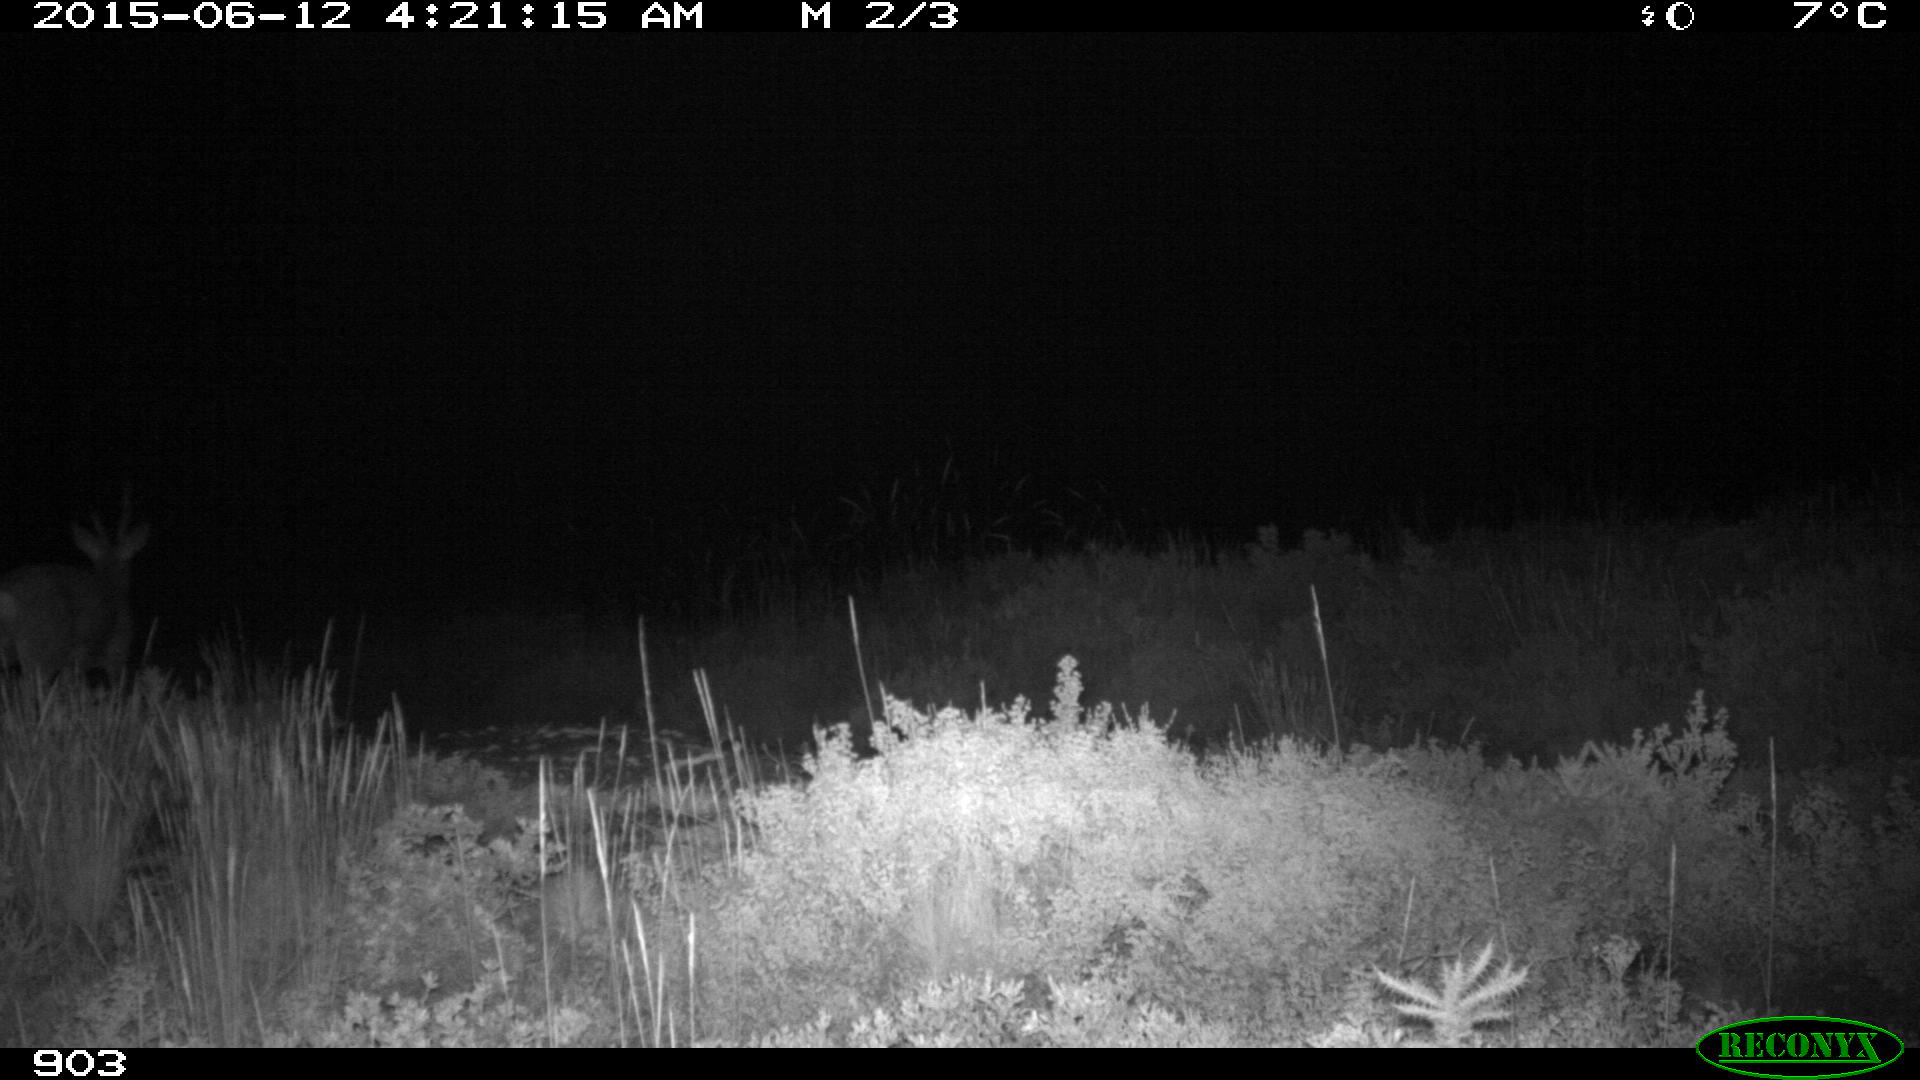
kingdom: Animalia
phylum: Chordata
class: Mammalia
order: Artiodactyla
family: Cervidae
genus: Capreolus
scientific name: Capreolus capreolus
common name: Western roe deer
